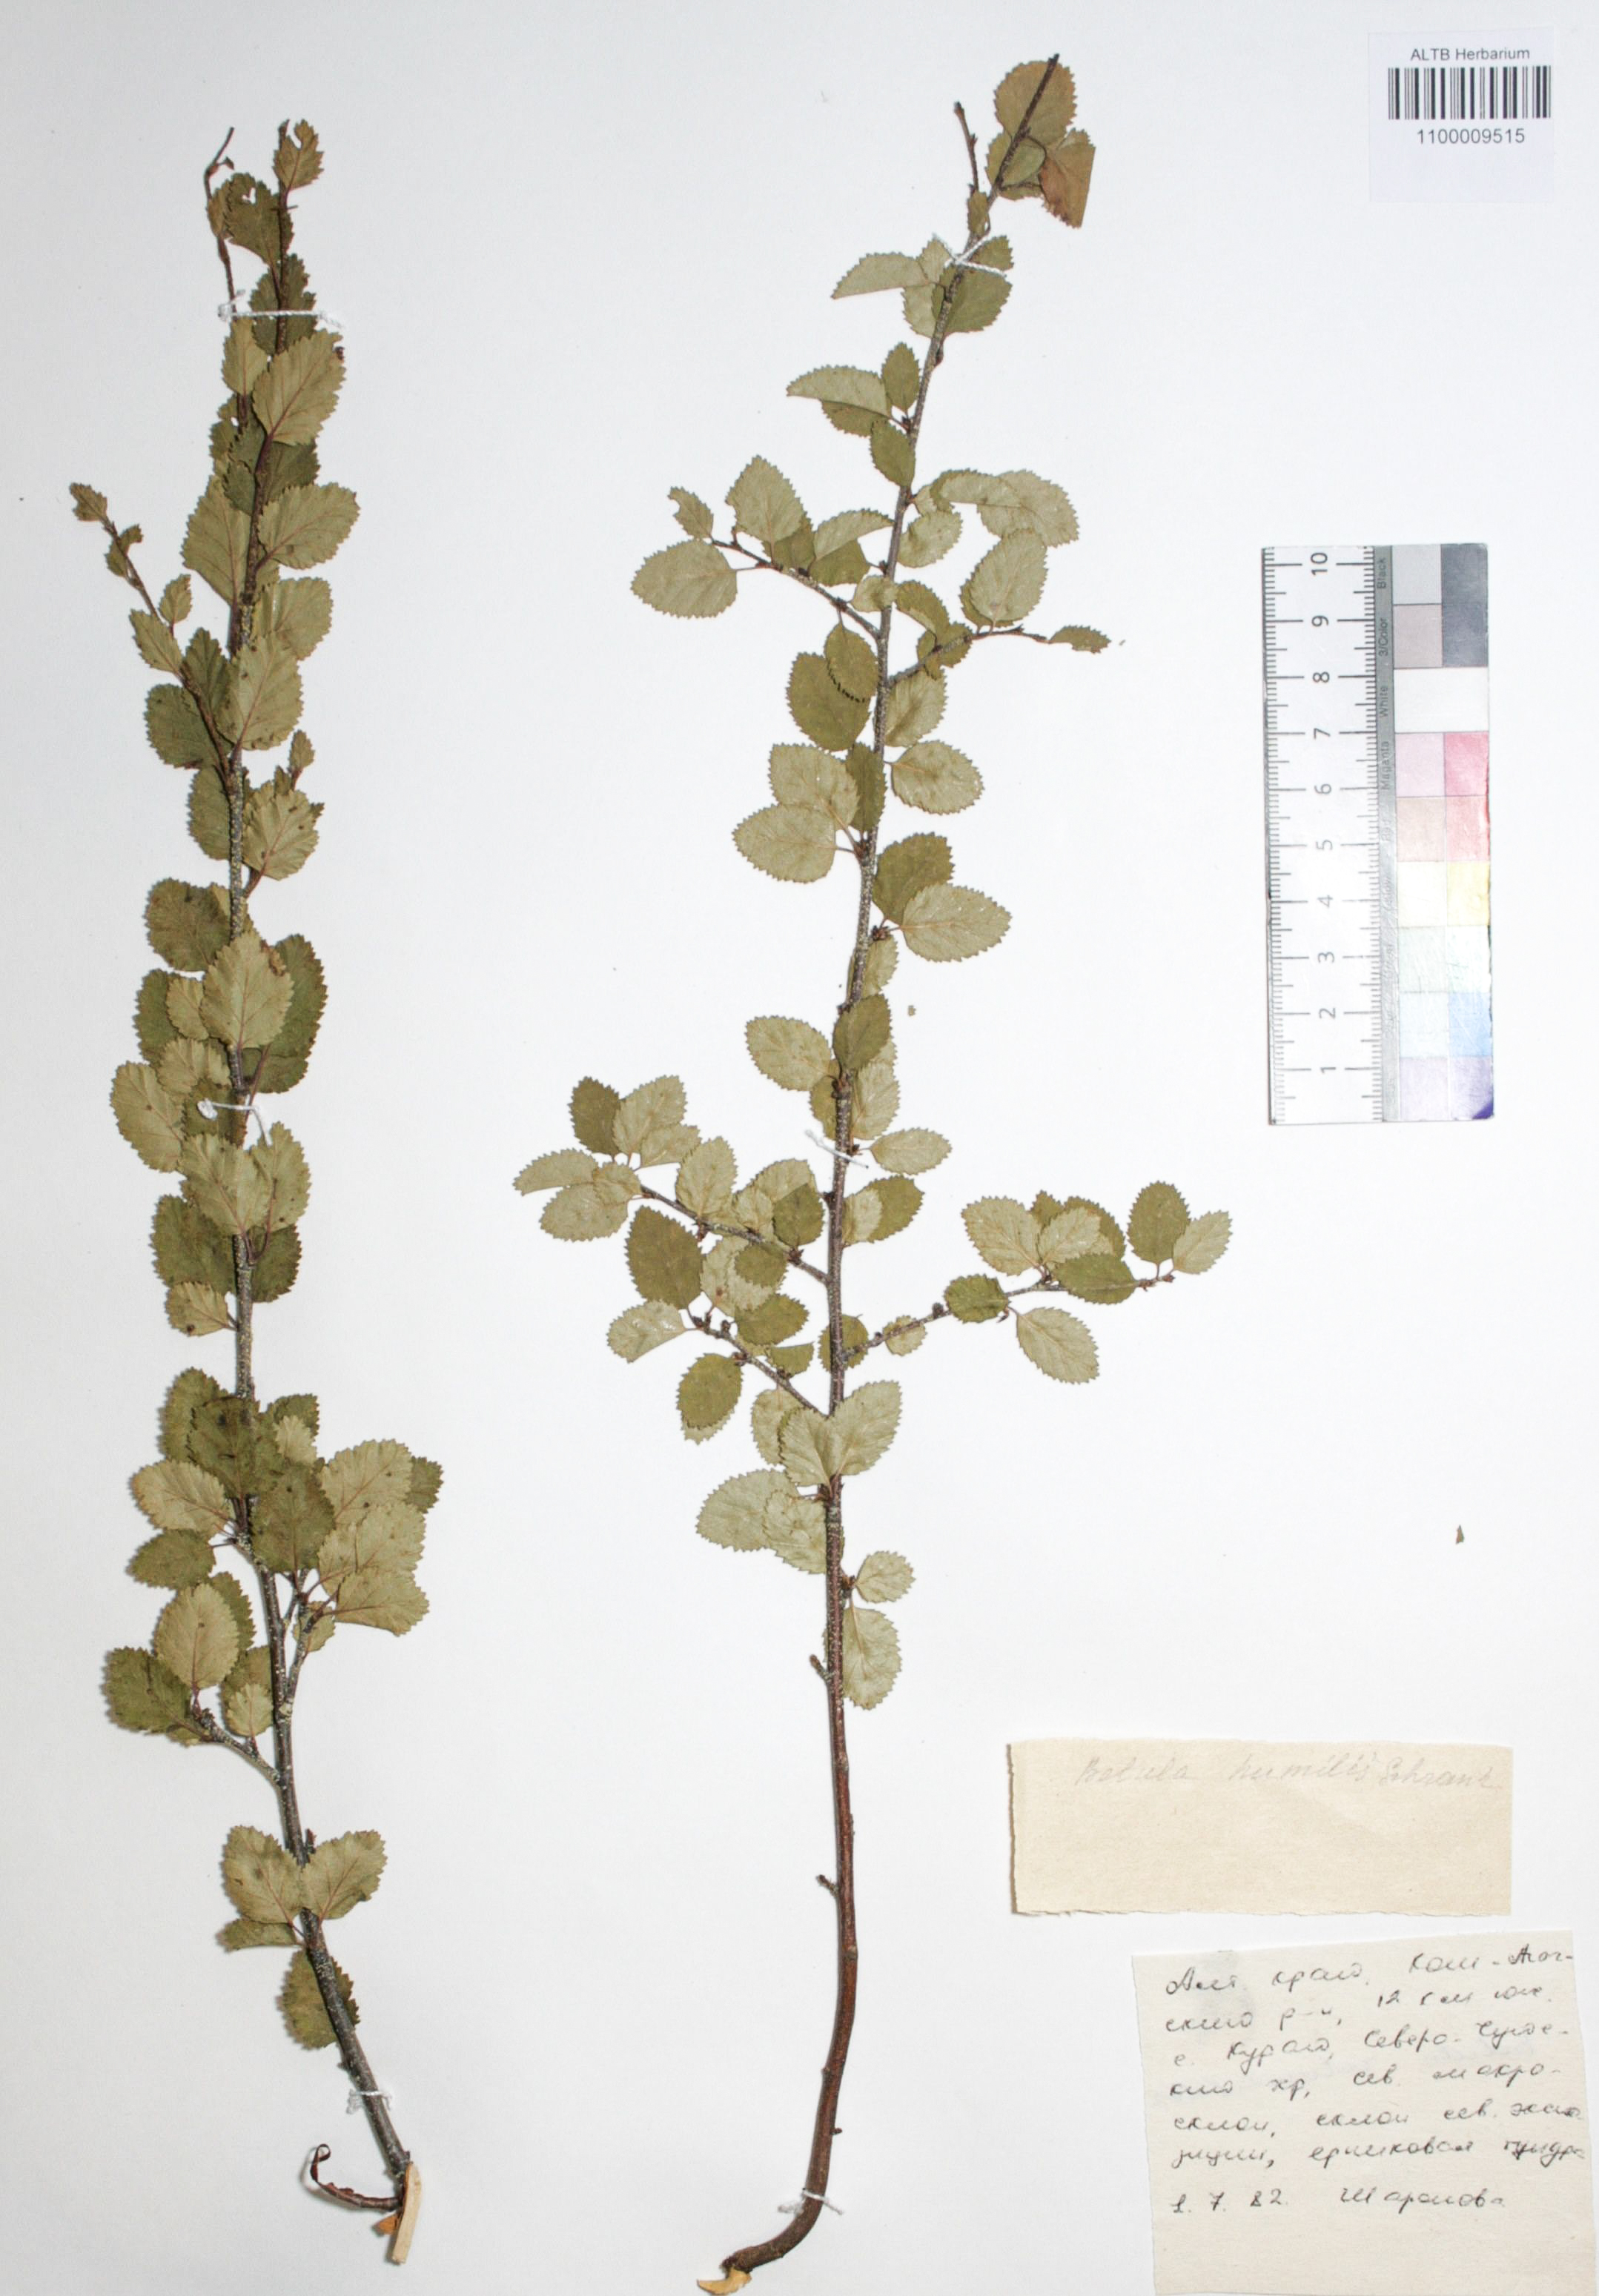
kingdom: Plantae
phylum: Tracheophyta
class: Magnoliopsida
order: Fagales
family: Betulaceae
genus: Betula
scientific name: Betula humilis
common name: Shrubby birch
